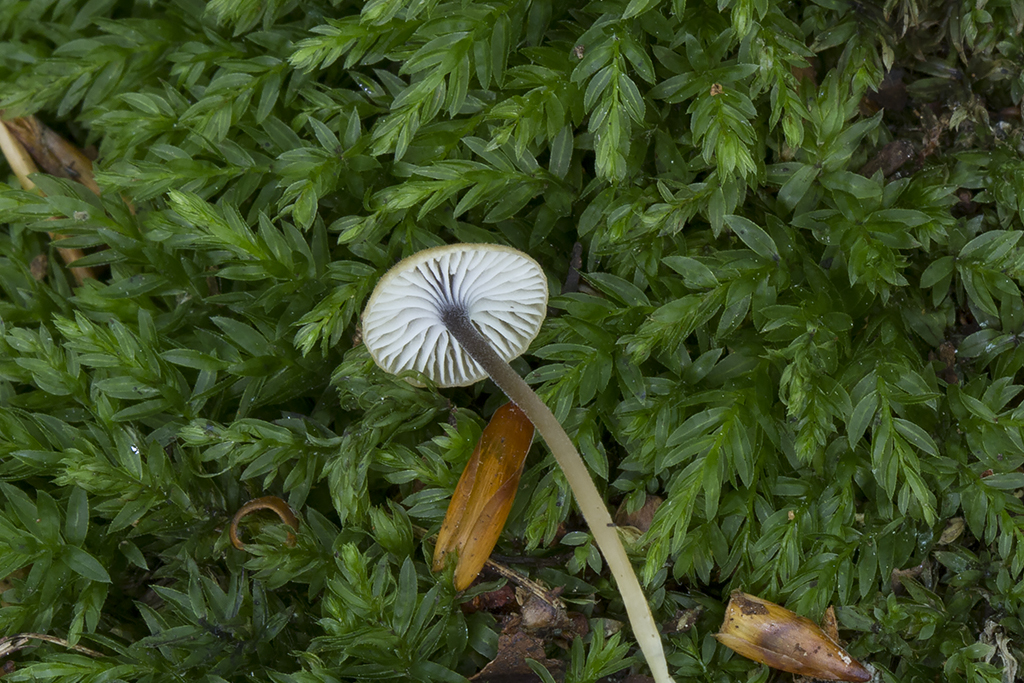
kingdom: Fungi
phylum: Basidiomycota
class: Agaricomycetes
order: Hymenochaetales
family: Rickenellaceae
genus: Rickenella
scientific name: Rickenella swartzii
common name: finstokket mosnavlehat
